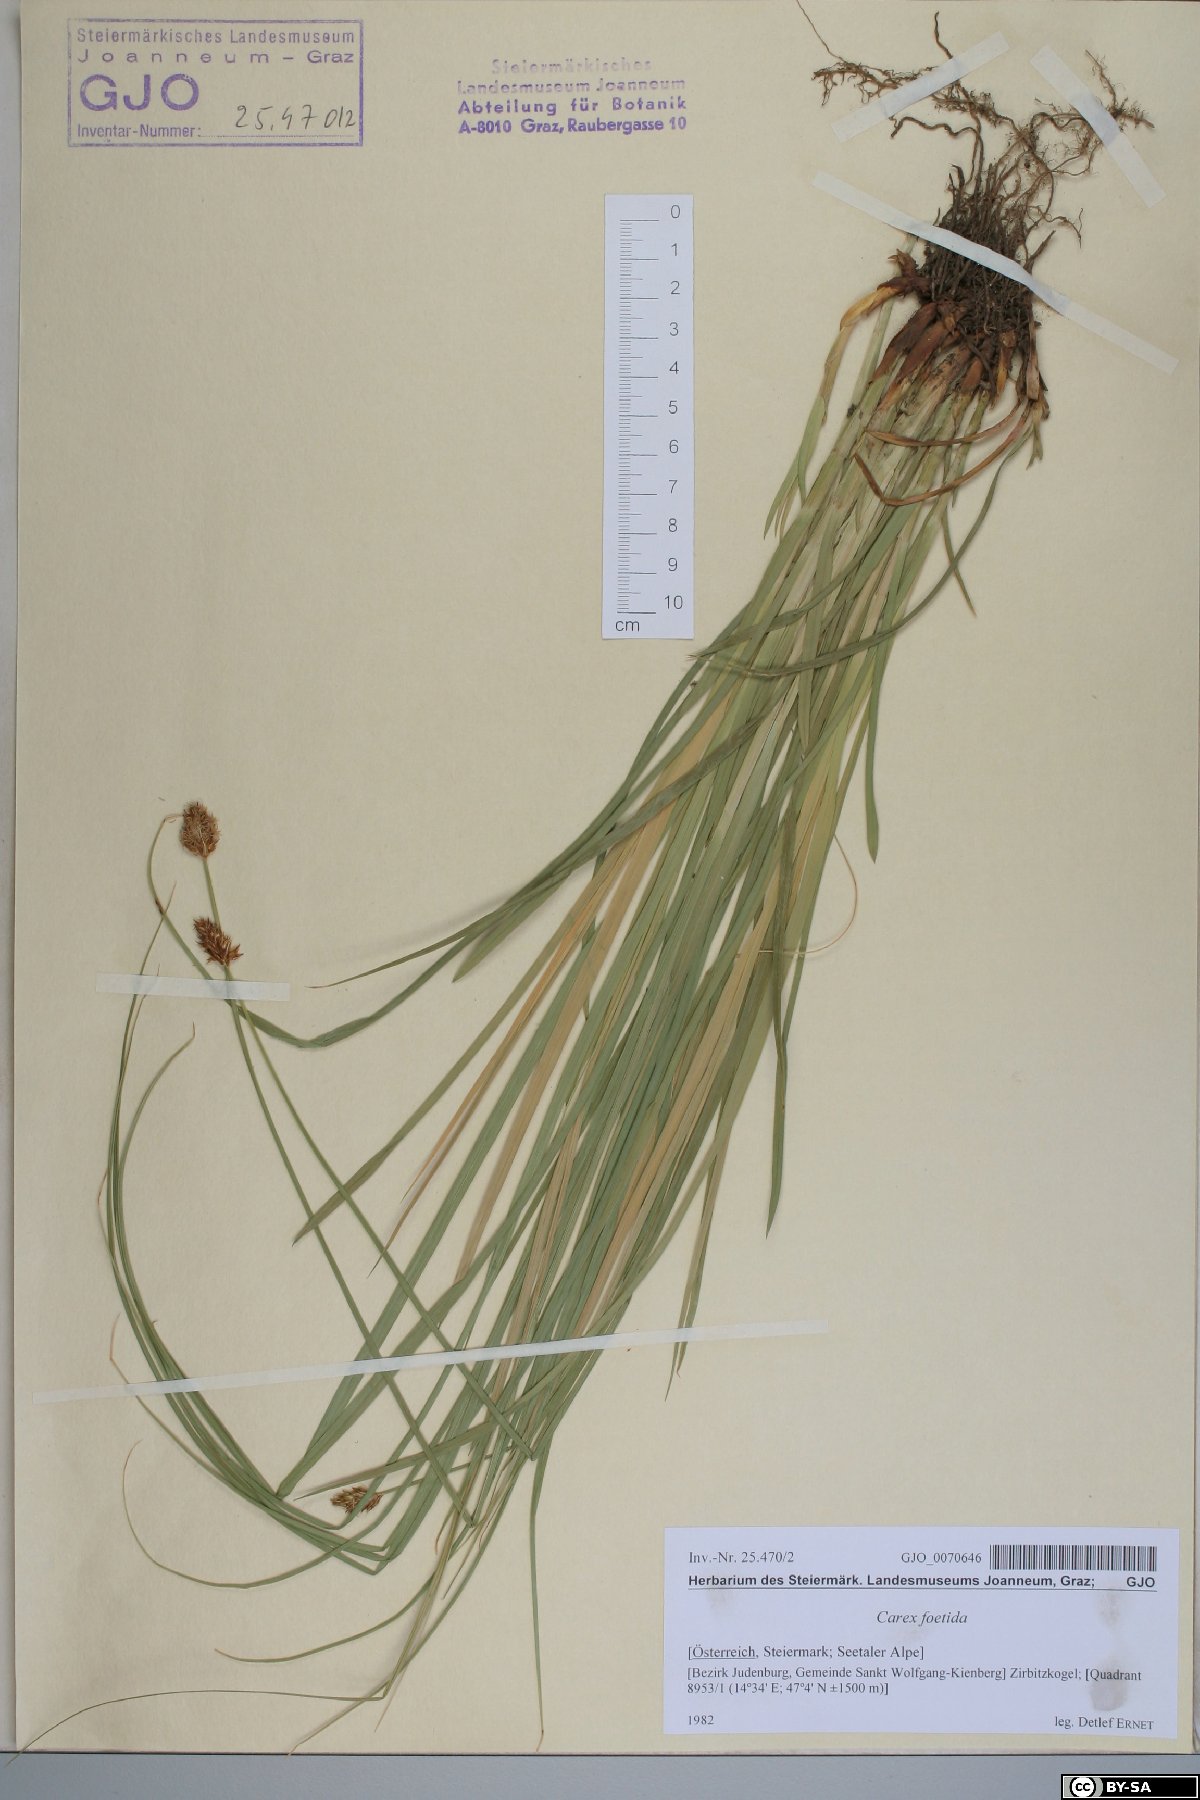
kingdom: Plantae
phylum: Tracheophyta
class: Liliopsida
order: Poales
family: Cyperaceae
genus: Carex
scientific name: Carex foetida
